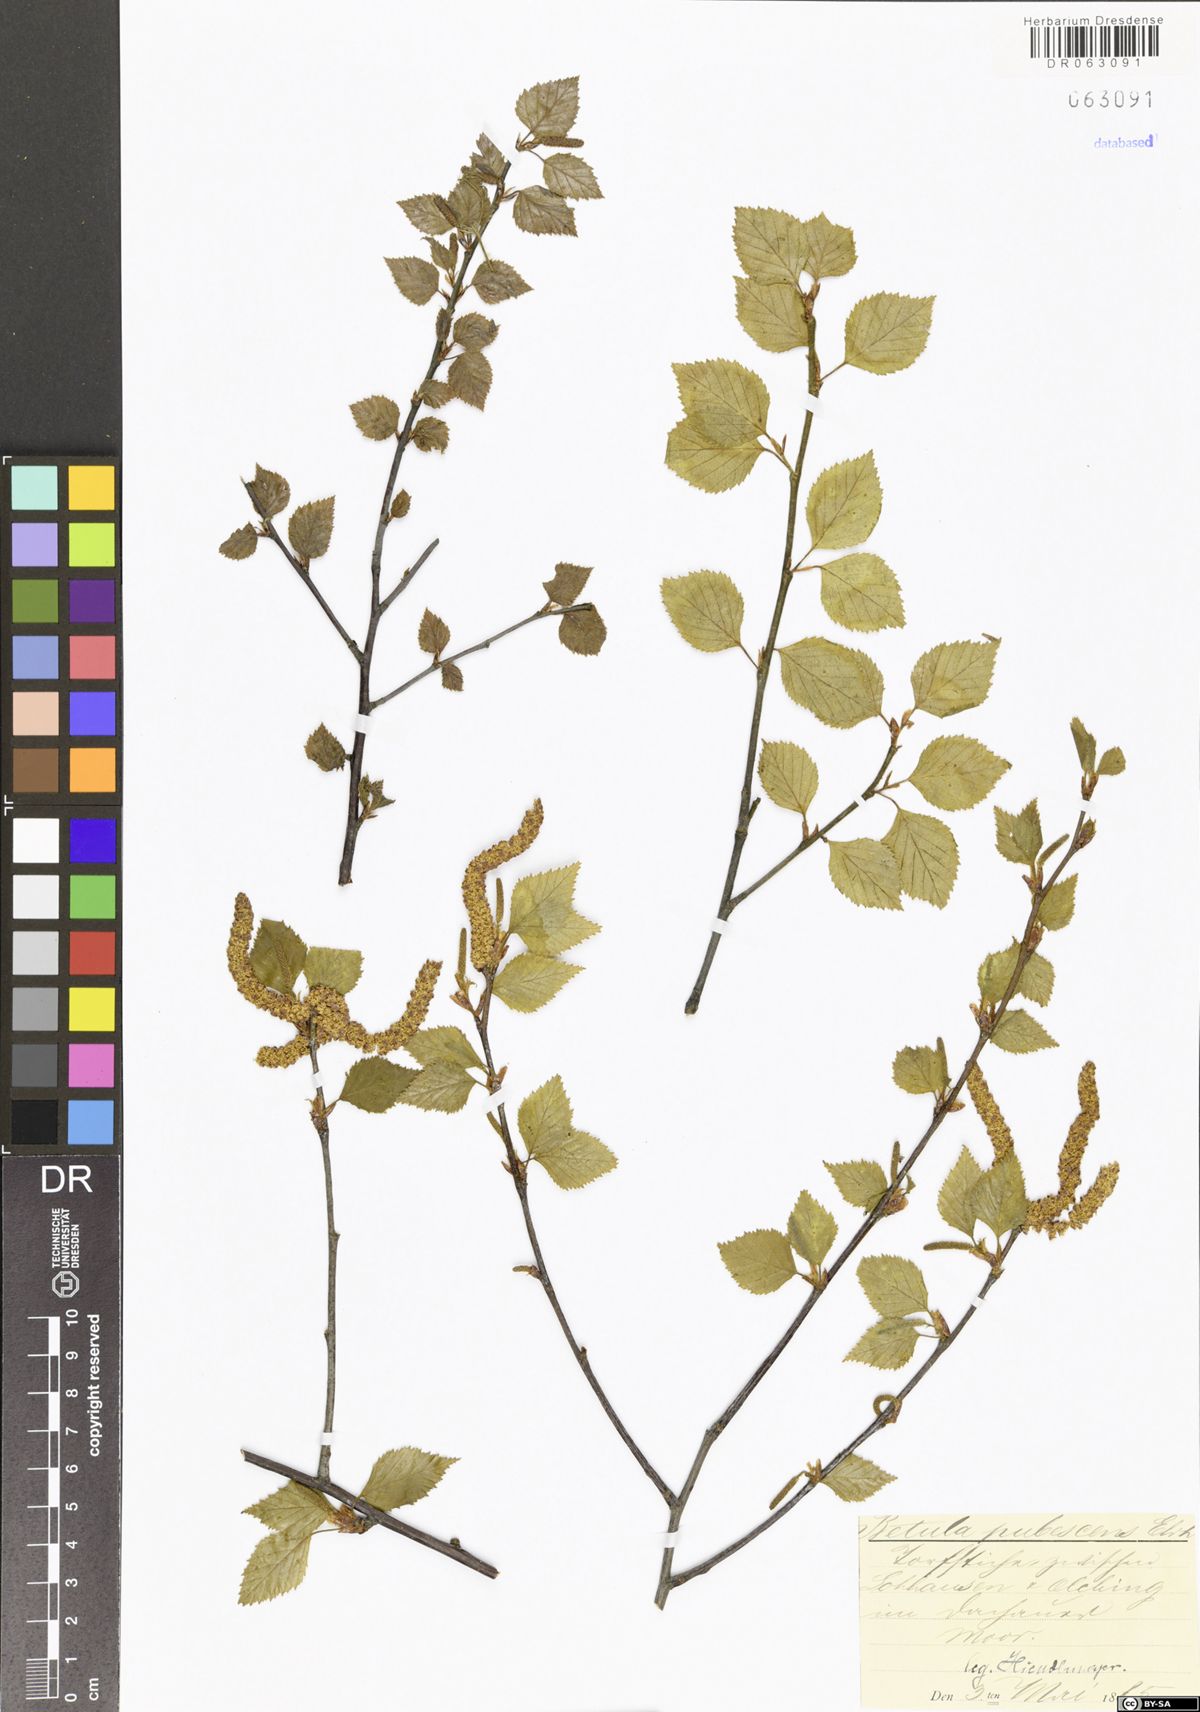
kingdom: Plantae
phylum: Tracheophyta
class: Magnoliopsida
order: Fagales
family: Betulaceae
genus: Betula
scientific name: Betula pubescens
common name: Downy birch
